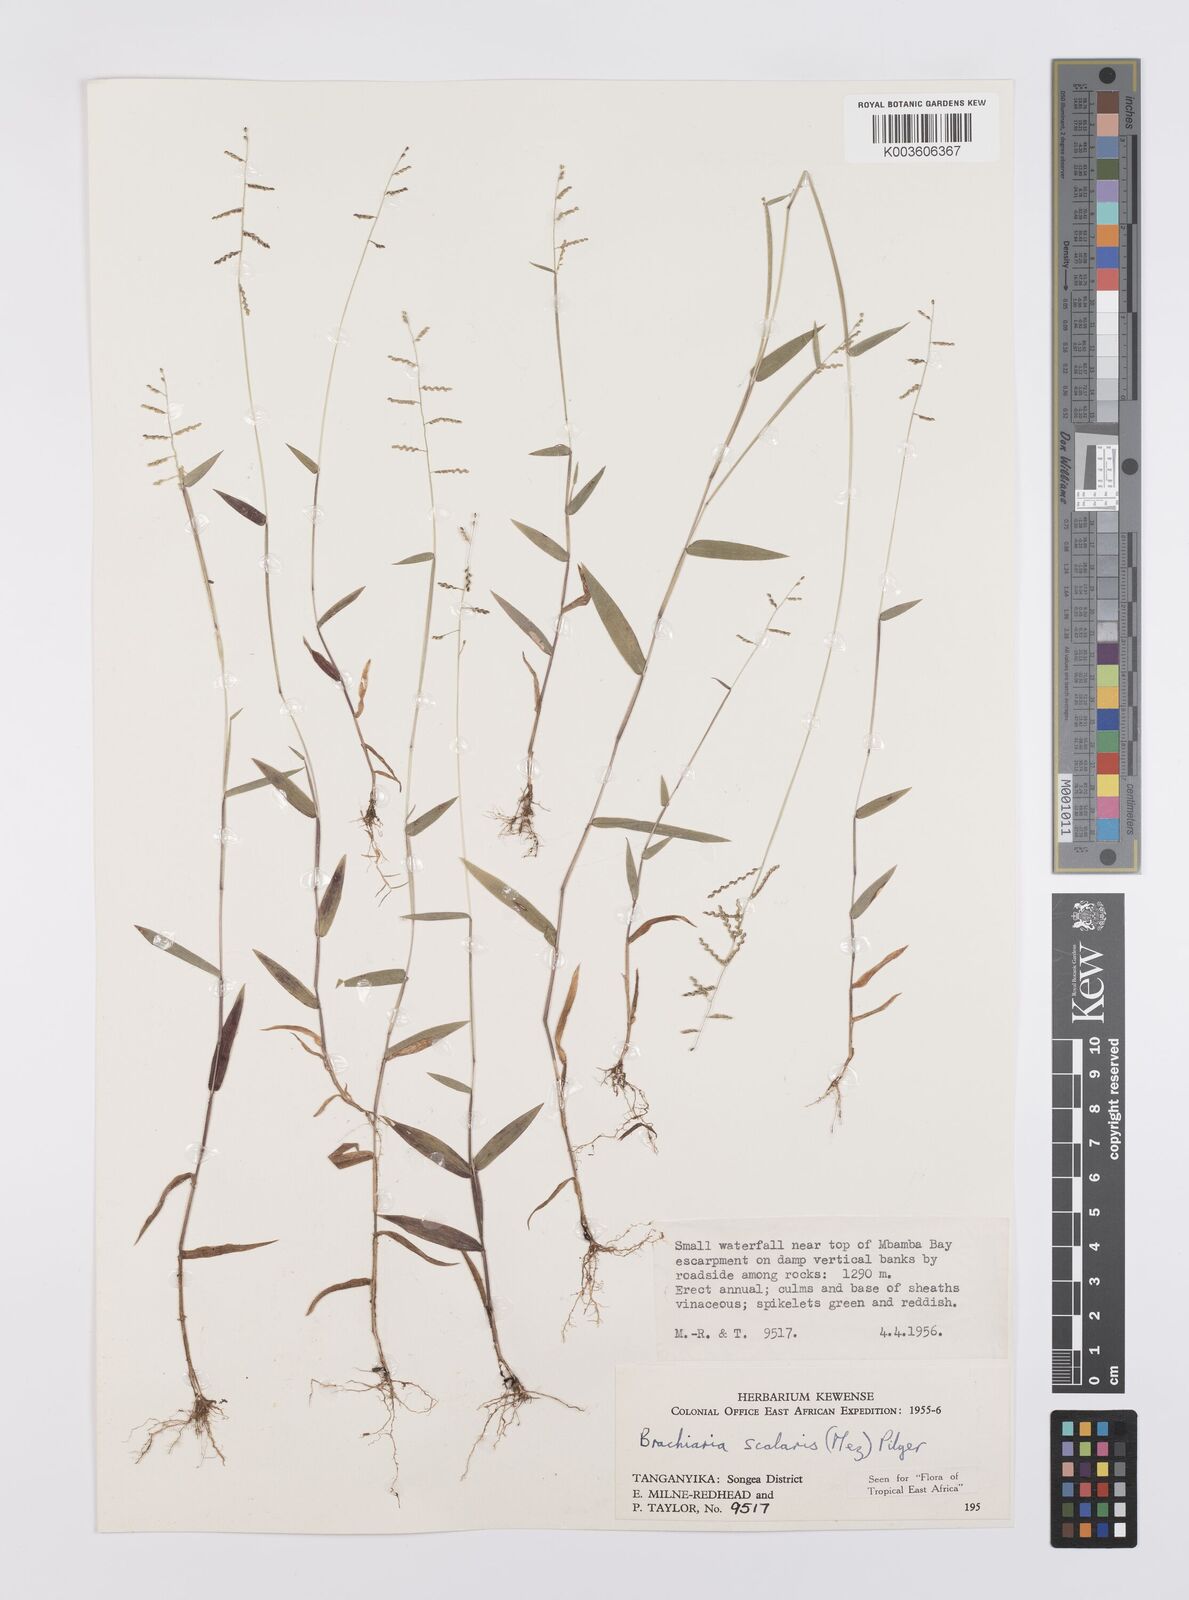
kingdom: Plantae
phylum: Tracheophyta
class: Liliopsida
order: Poales
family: Poaceae
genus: Urochloa
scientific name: Urochloa comata
